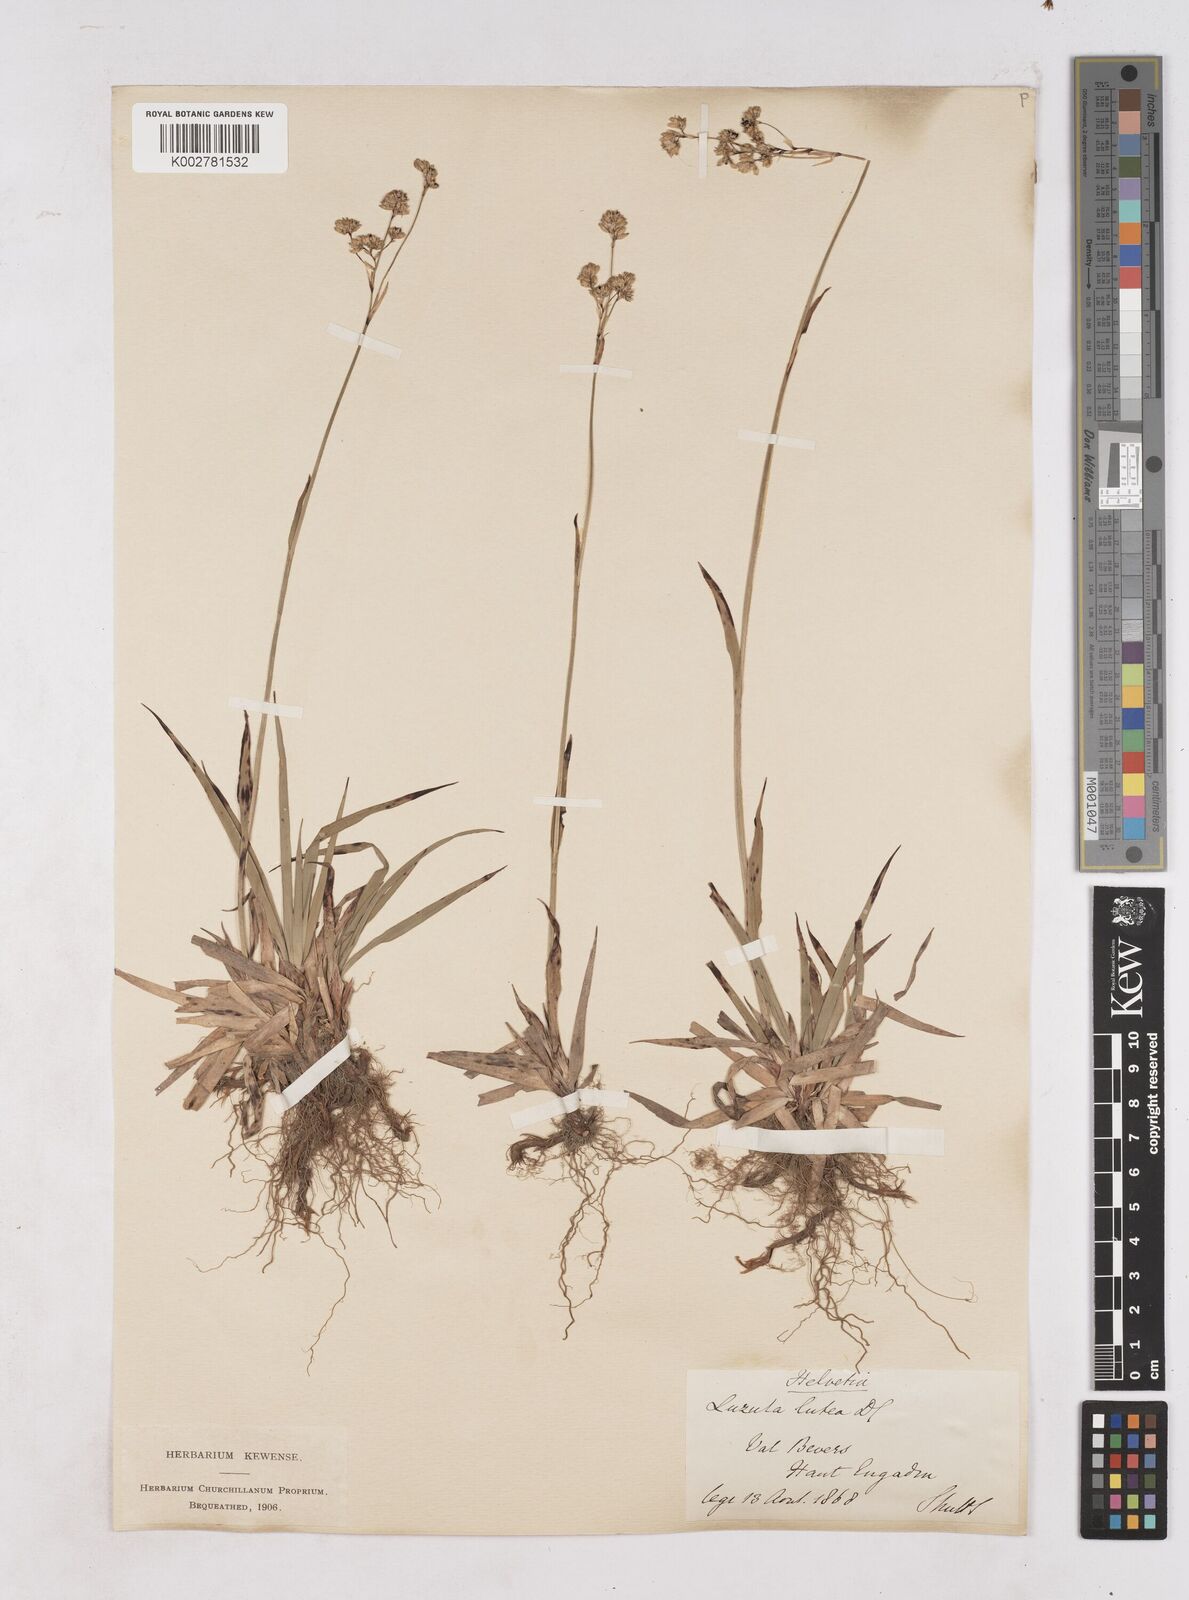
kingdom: Plantae
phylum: Tracheophyta
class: Liliopsida
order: Poales
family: Juncaceae
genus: Luzula
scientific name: Luzula lutea
